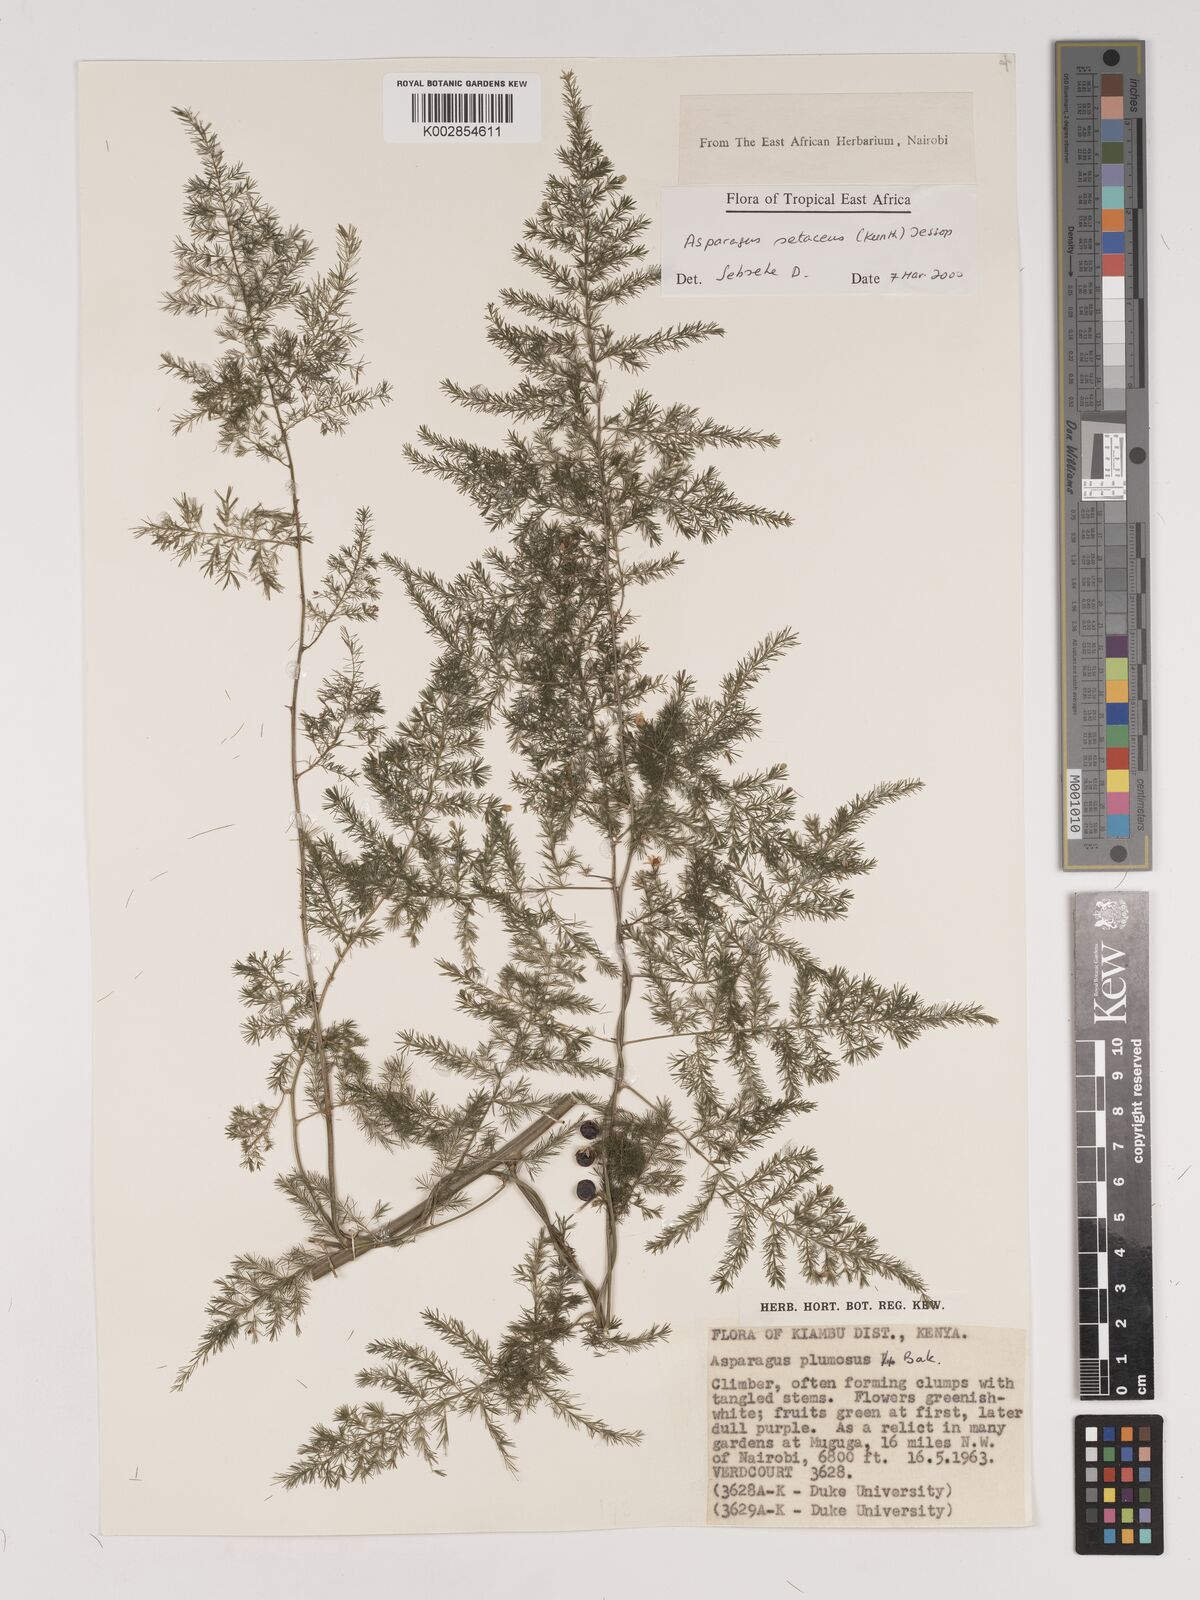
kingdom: Plantae
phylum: Tracheophyta
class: Liliopsida
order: Asparagales
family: Asparagaceae
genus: Asparagus
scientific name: Asparagus setaceus
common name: Common asparagus fern
